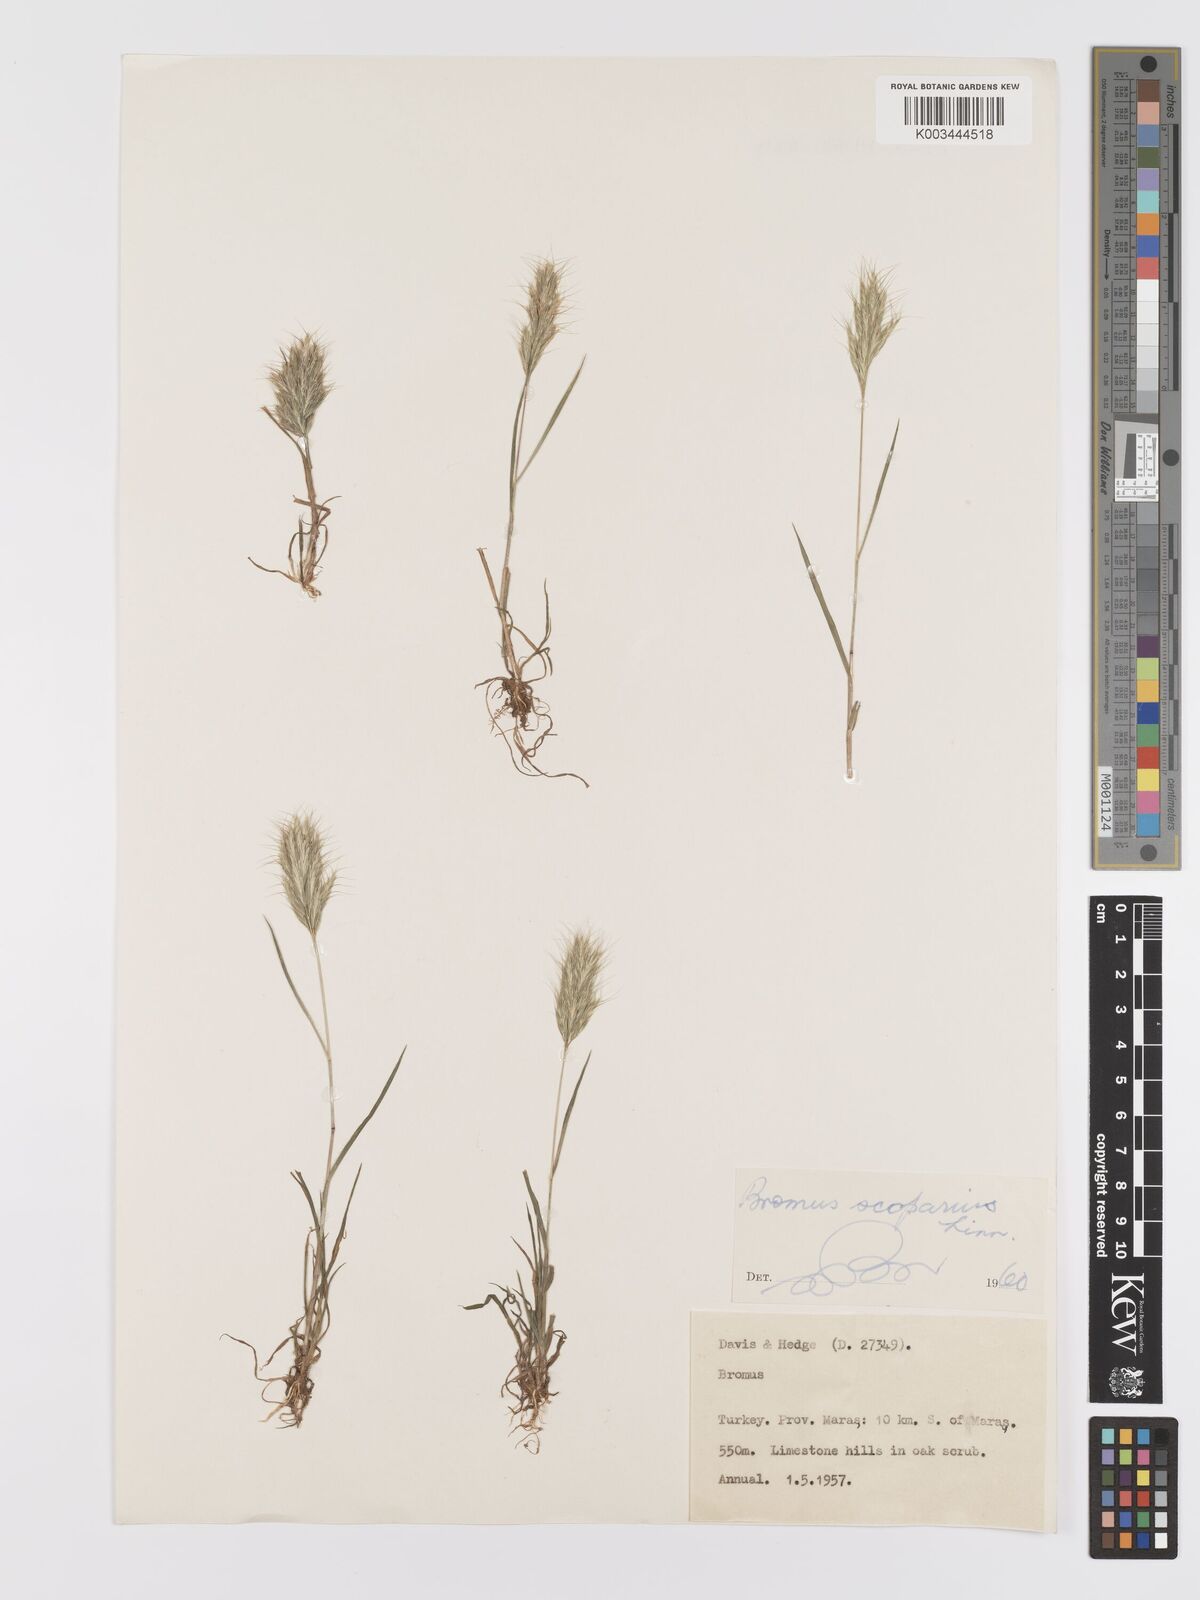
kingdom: Plantae
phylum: Tracheophyta
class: Liliopsida
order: Poales
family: Poaceae
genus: Bromus
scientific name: Bromus scoparius
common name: Broom brome
